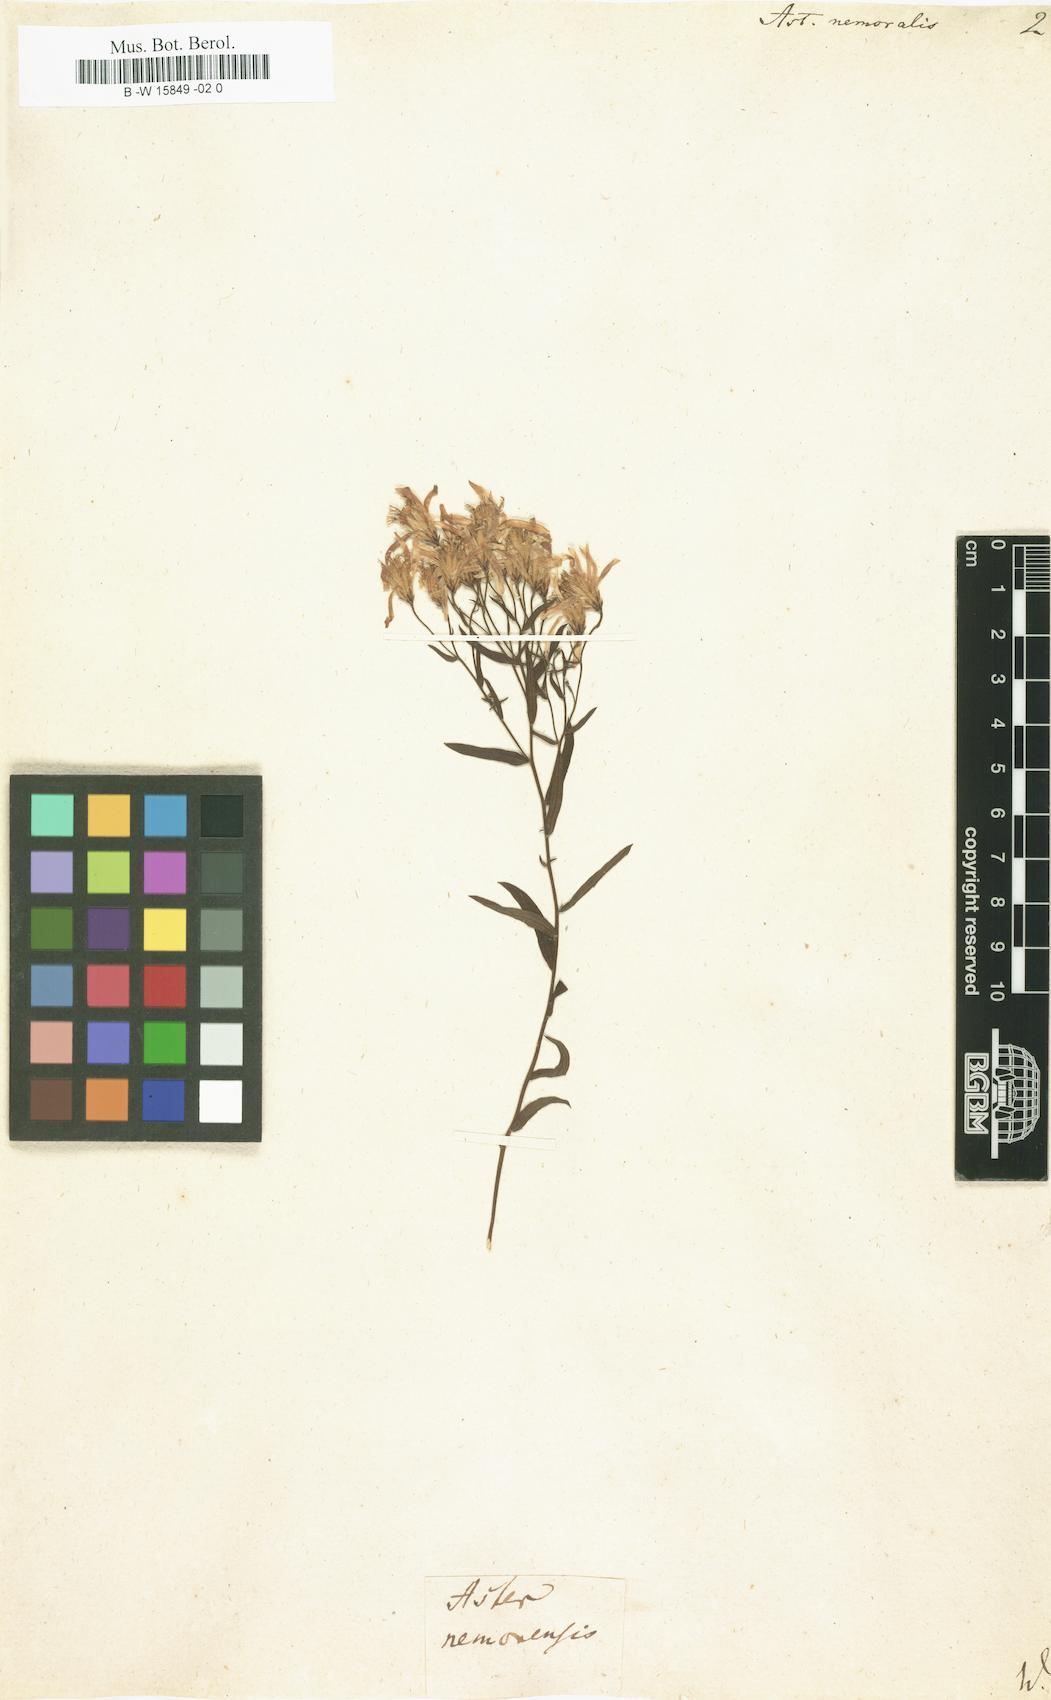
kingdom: Plantae
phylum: Tracheophyta
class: Magnoliopsida
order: Asterales
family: Asteraceae
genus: Oclemena
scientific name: Oclemena nemoralis
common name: Bog aster
